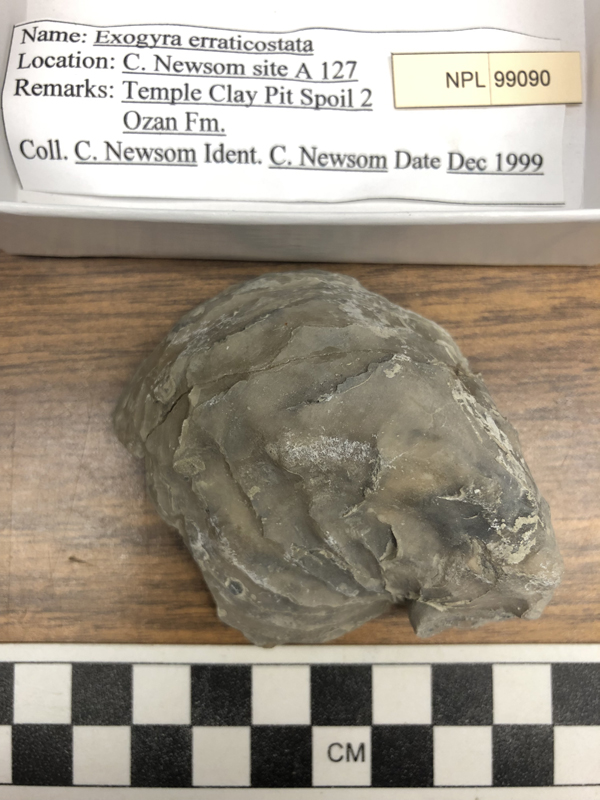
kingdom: Animalia
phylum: Mollusca
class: Bivalvia
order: Ostreida
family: Gryphaeidae
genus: Exogyra
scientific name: Exogyra
